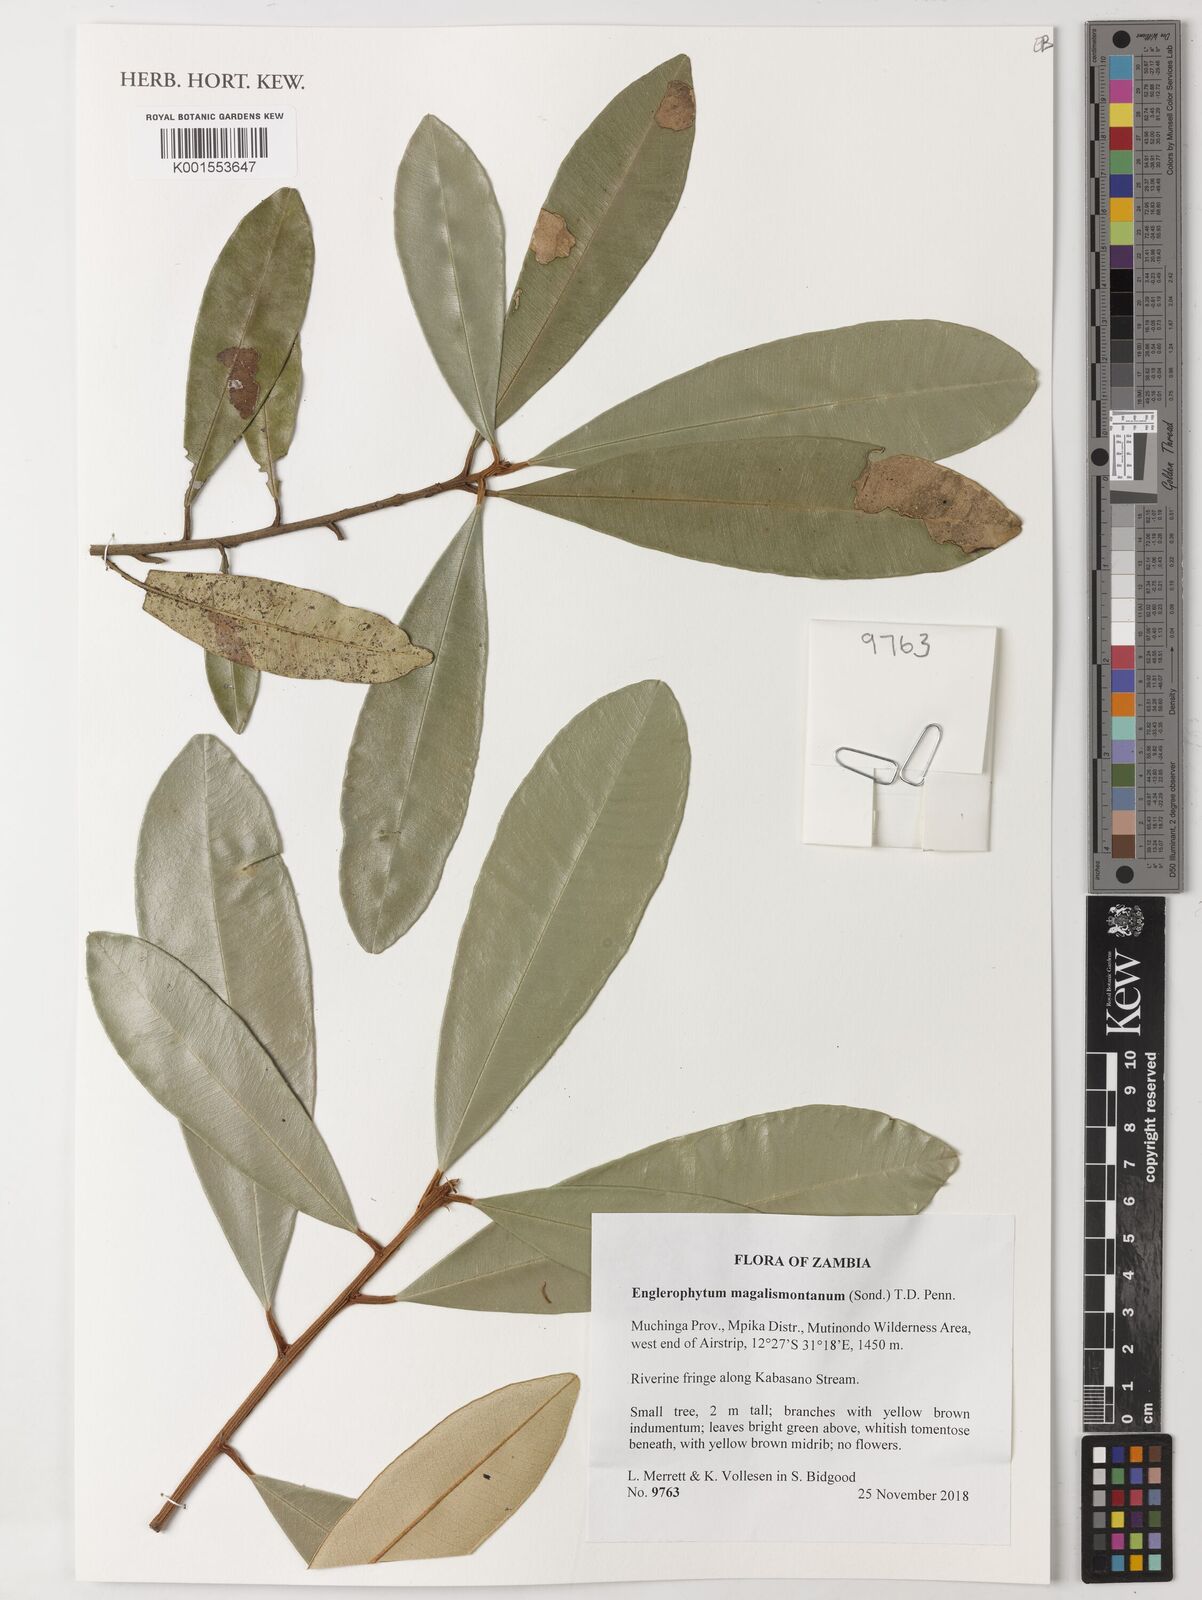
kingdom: Plantae
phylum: Tracheophyta
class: Magnoliopsida
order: Ericales
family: Sapotaceae
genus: Englerophytum
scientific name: Englerophytum magalismontanum
